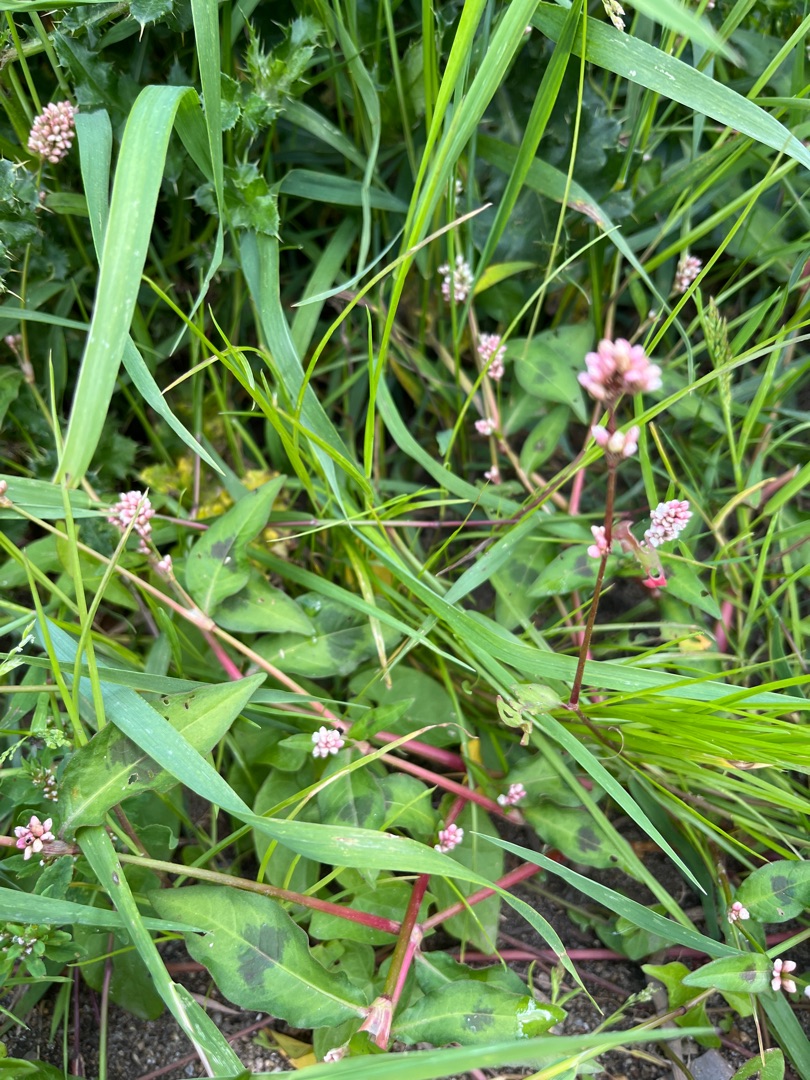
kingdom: Plantae
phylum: Tracheophyta
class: Magnoliopsida
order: Caryophyllales
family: Polygonaceae
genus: Persicaria
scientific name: Persicaria maculosa
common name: Fersken-pileurt
